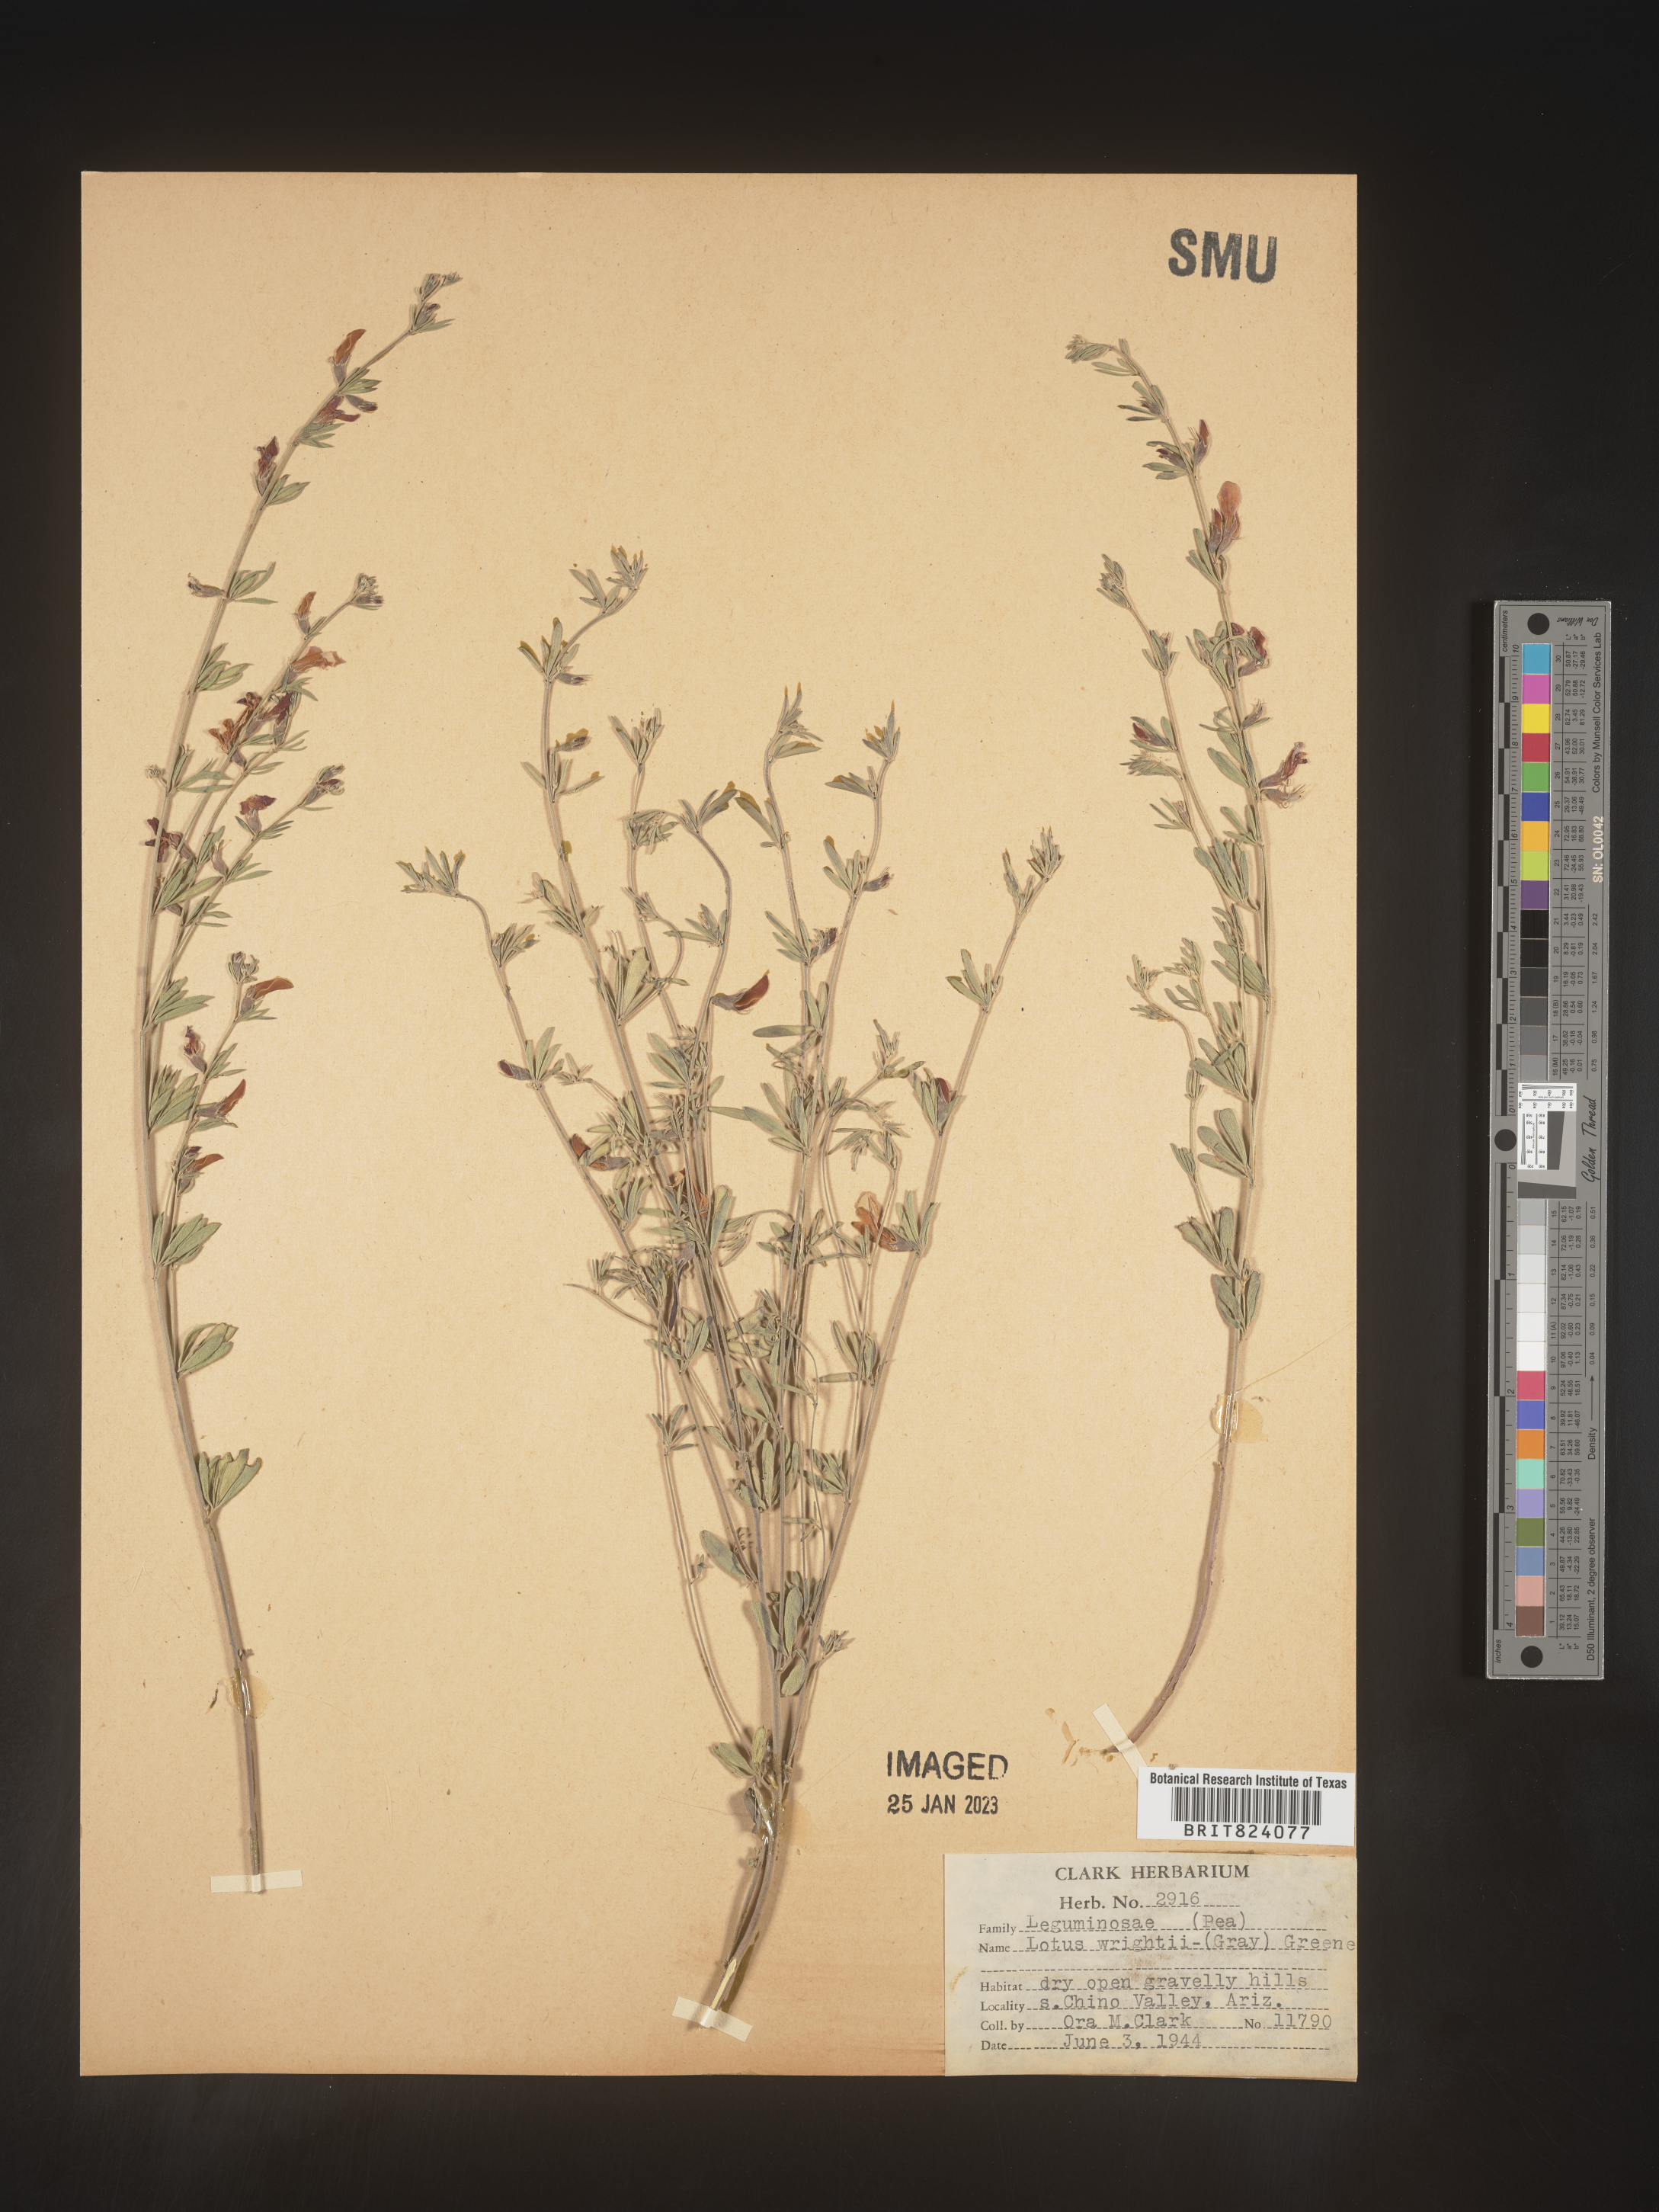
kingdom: Plantae
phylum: Tracheophyta
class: Magnoliopsida
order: Fabales
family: Fabaceae
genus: Acmispon
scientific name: Acmispon wrightii
